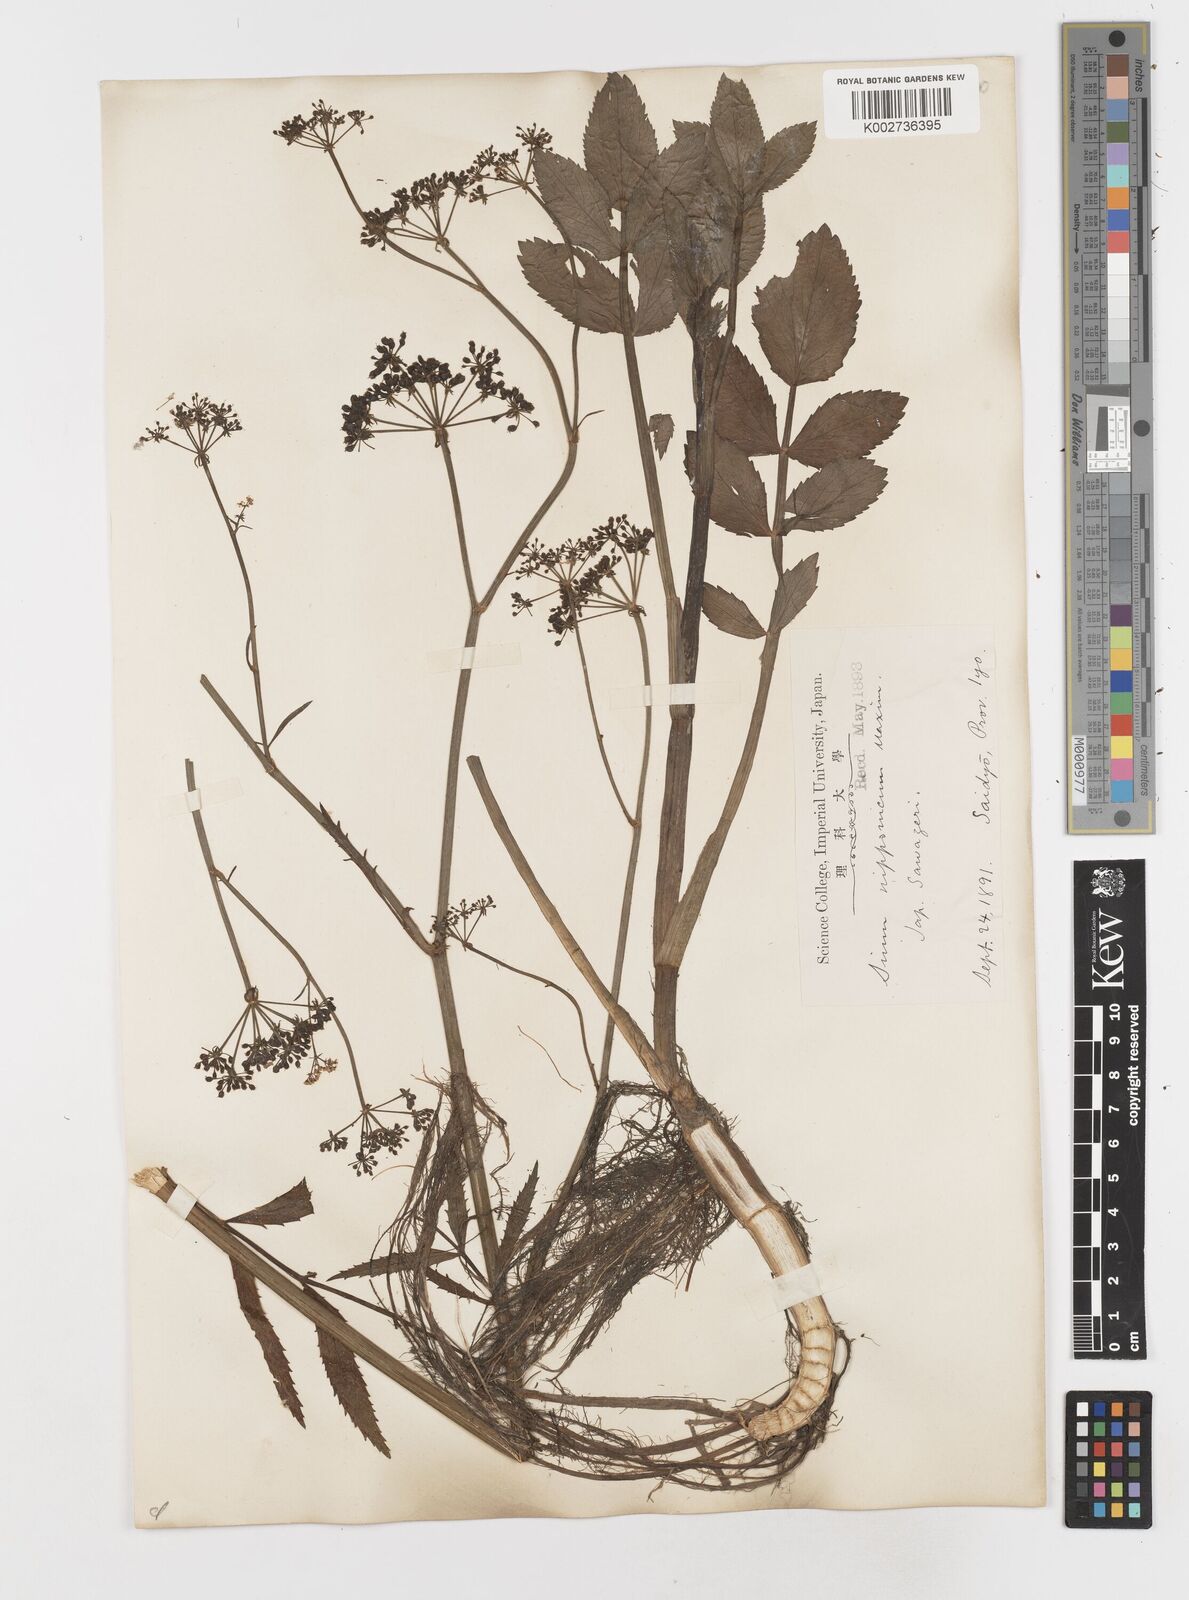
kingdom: Plantae
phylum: Tracheophyta
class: Magnoliopsida
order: Apiales
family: Apiaceae
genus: Sium
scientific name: Sium suave
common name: Hemlock water-parsnip
